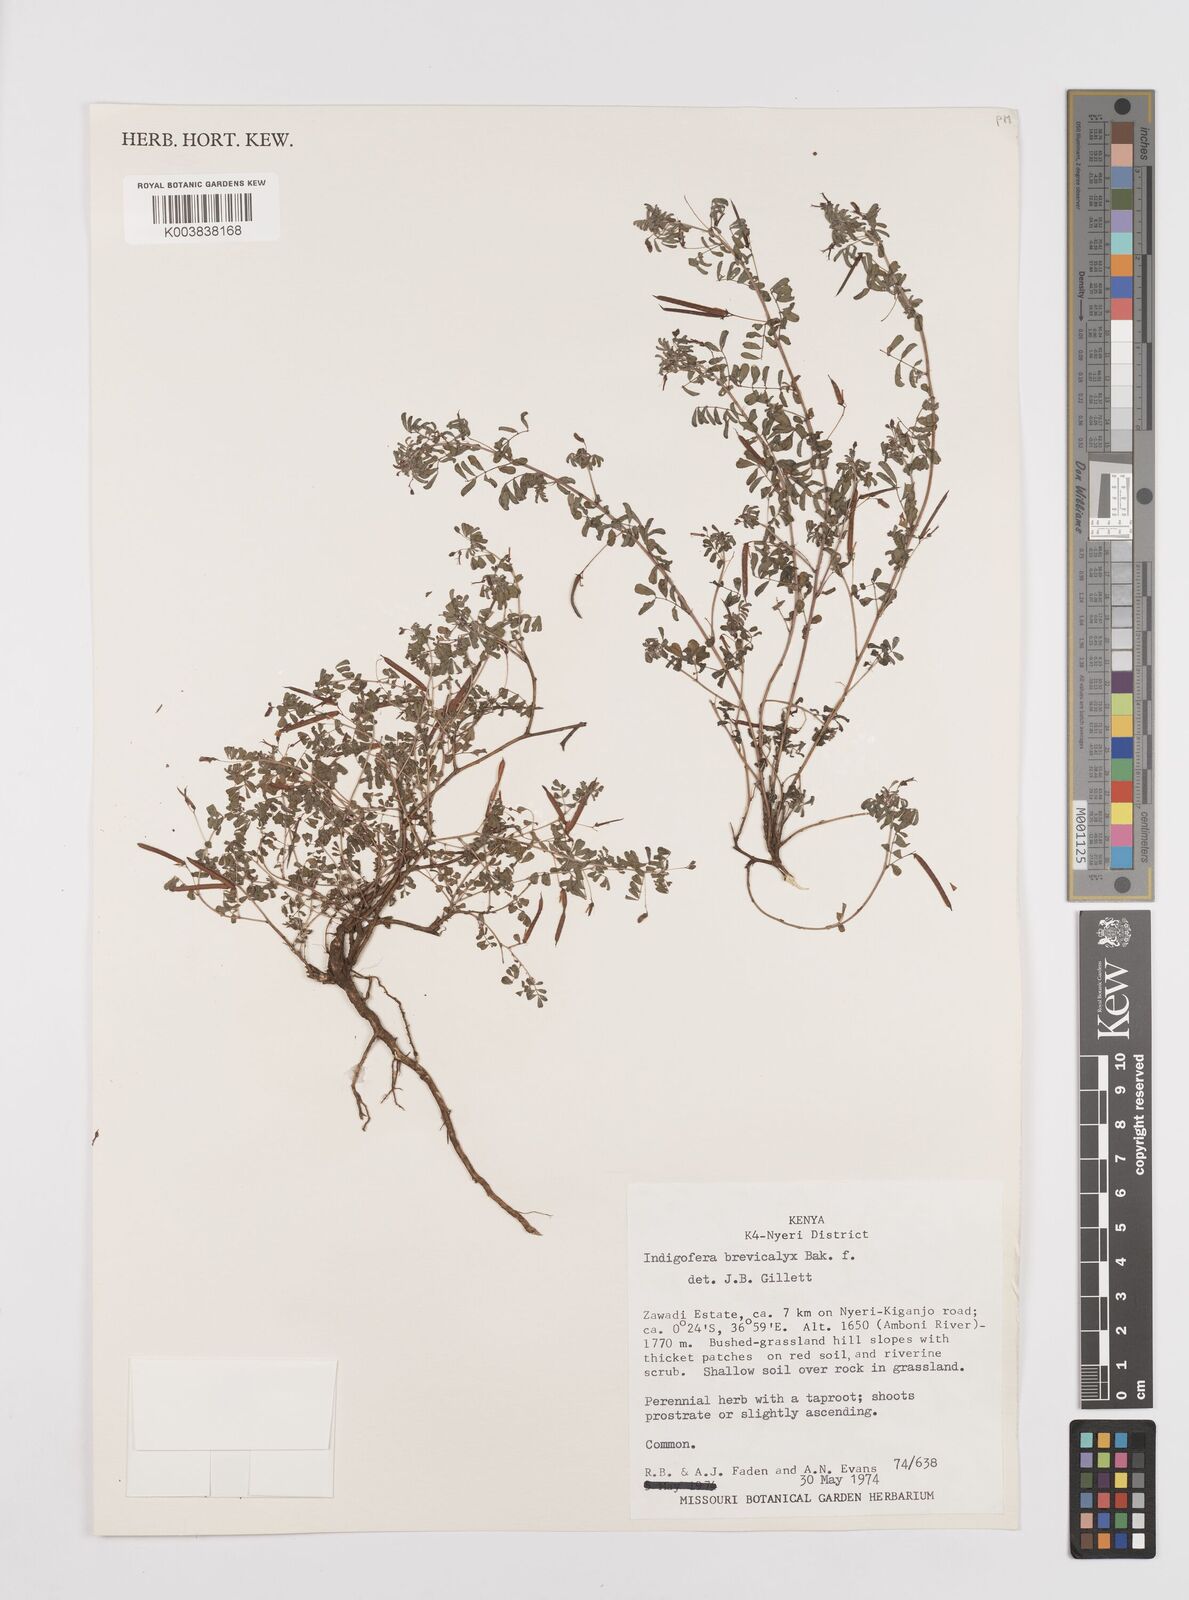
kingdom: Plantae
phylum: Tracheophyta
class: Magnoliopsida
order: Fabales
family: Fabaceae
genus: Indigofera
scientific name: Indigofera brevicalyx
